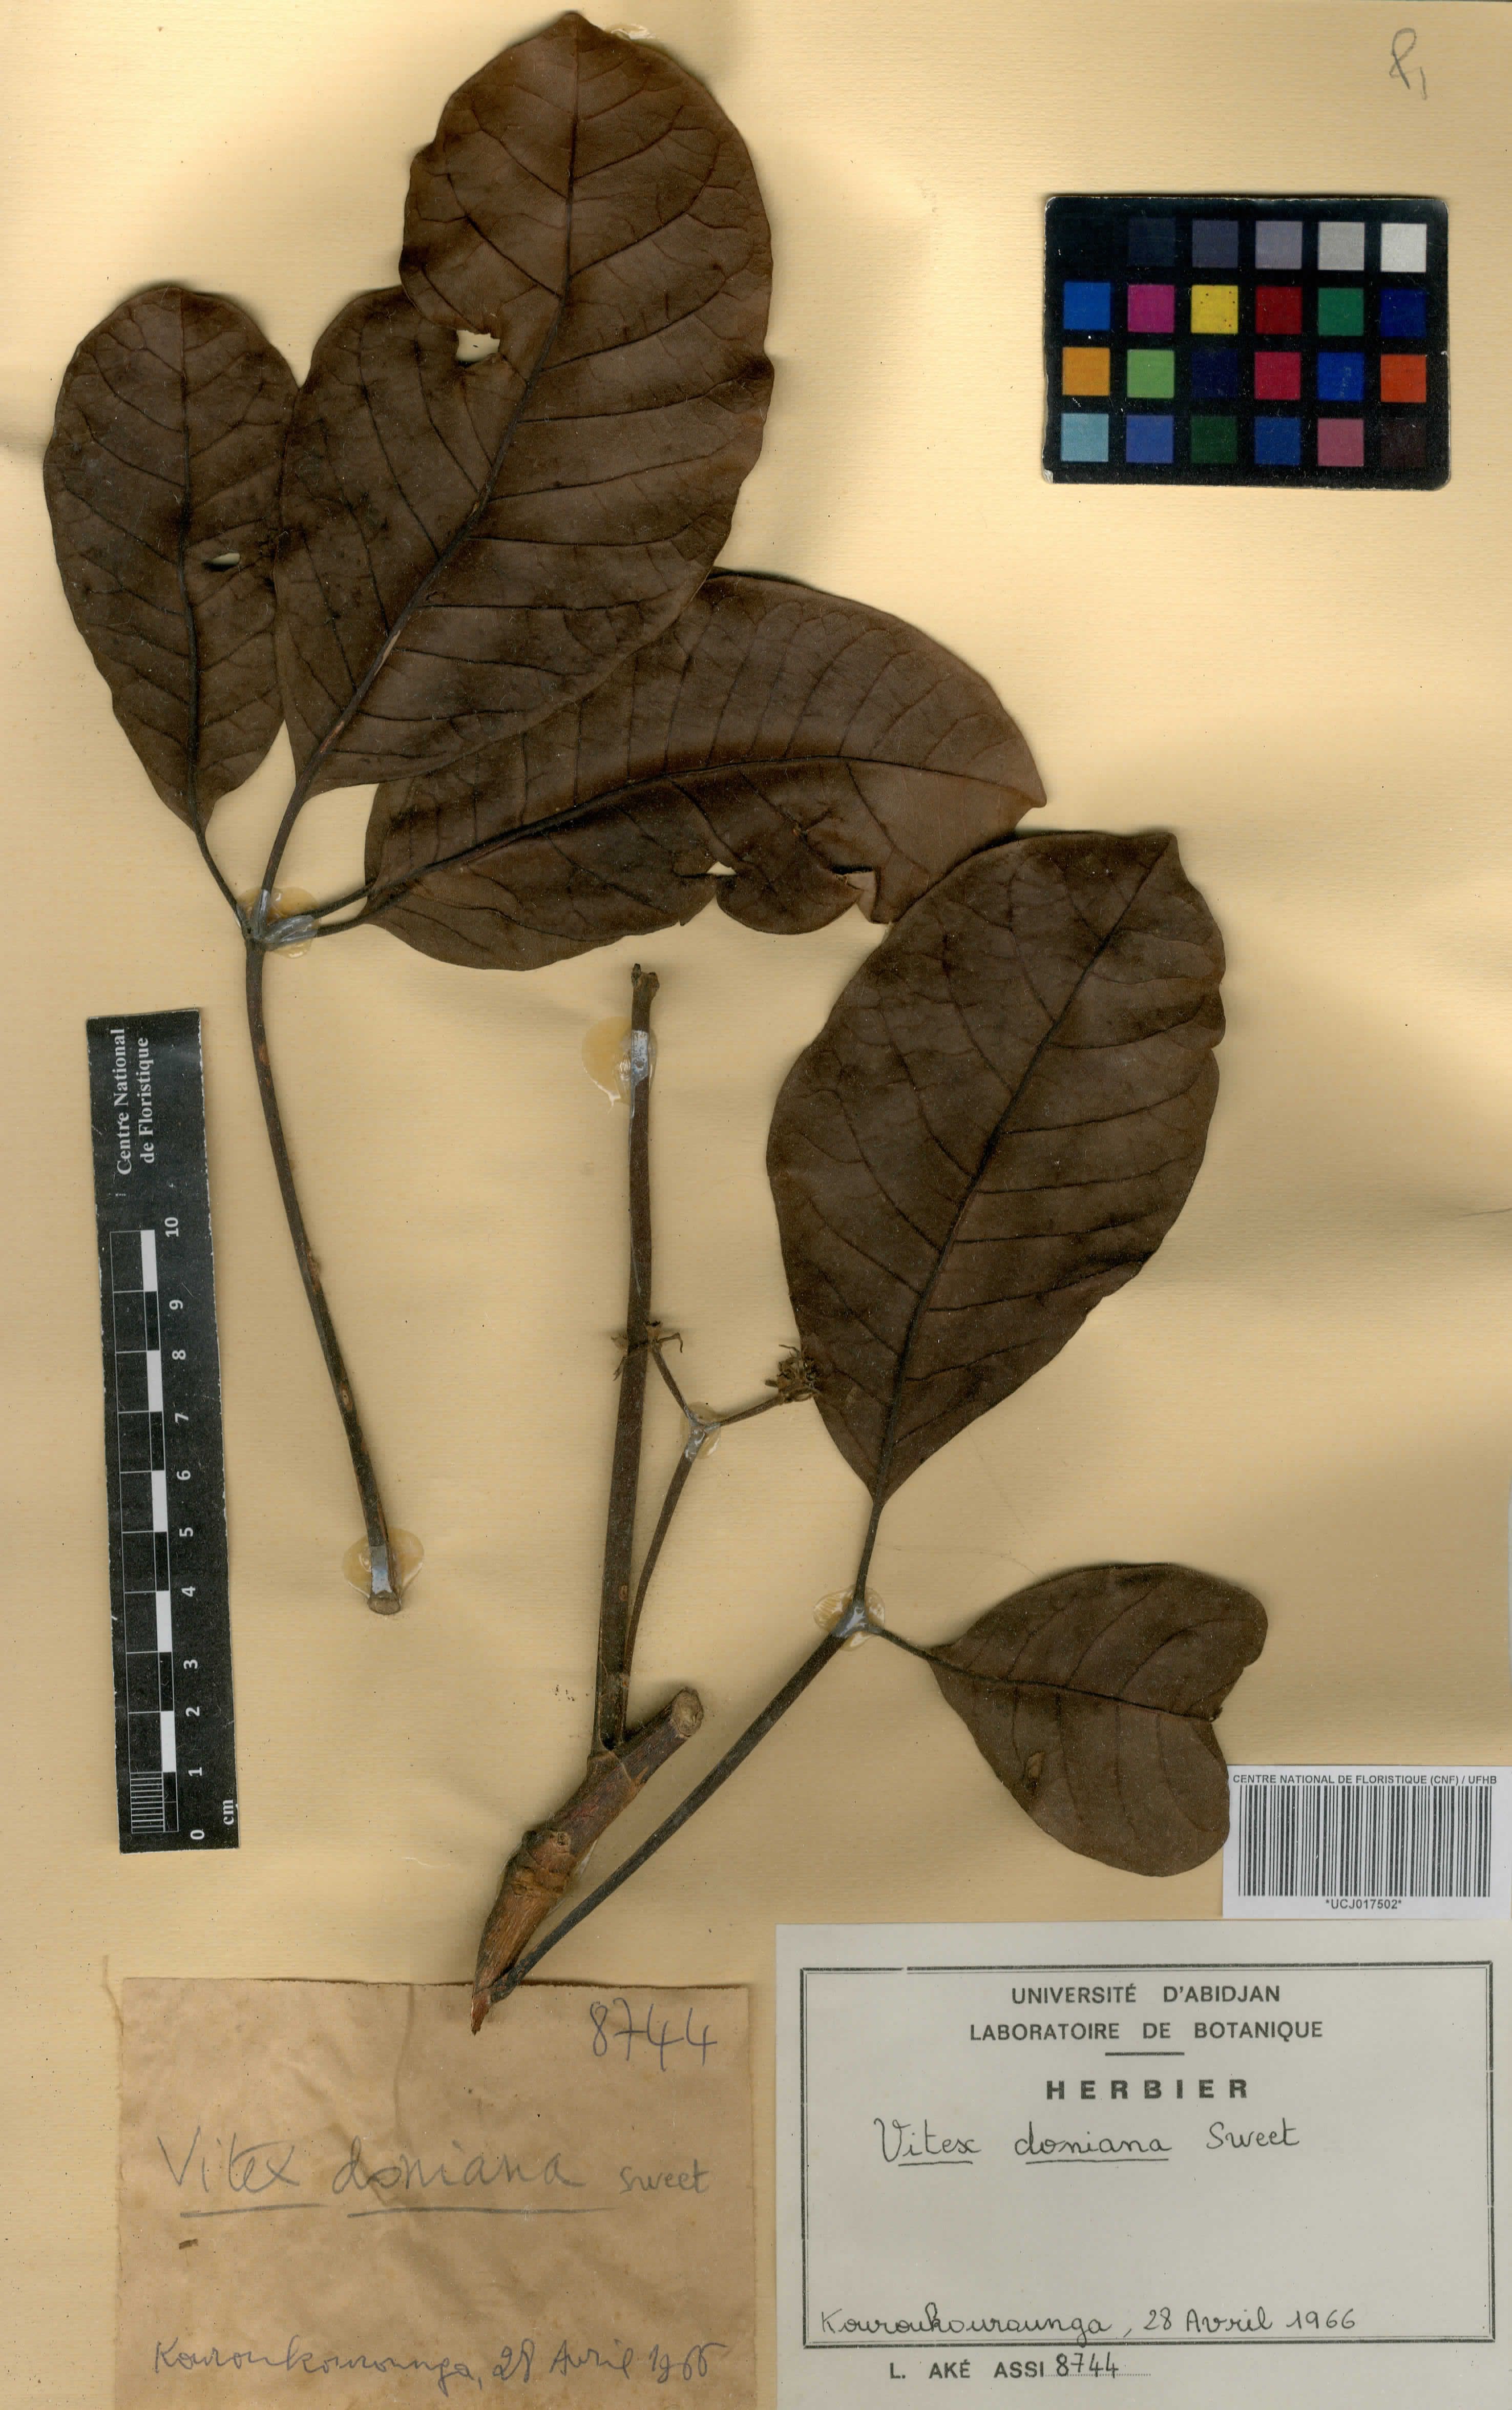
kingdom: Plantae
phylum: Tracheophyta
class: Magnoliopsida
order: Lamiales
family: Lamiaceae
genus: Vitex
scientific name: Vitex doniana
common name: Black plum
